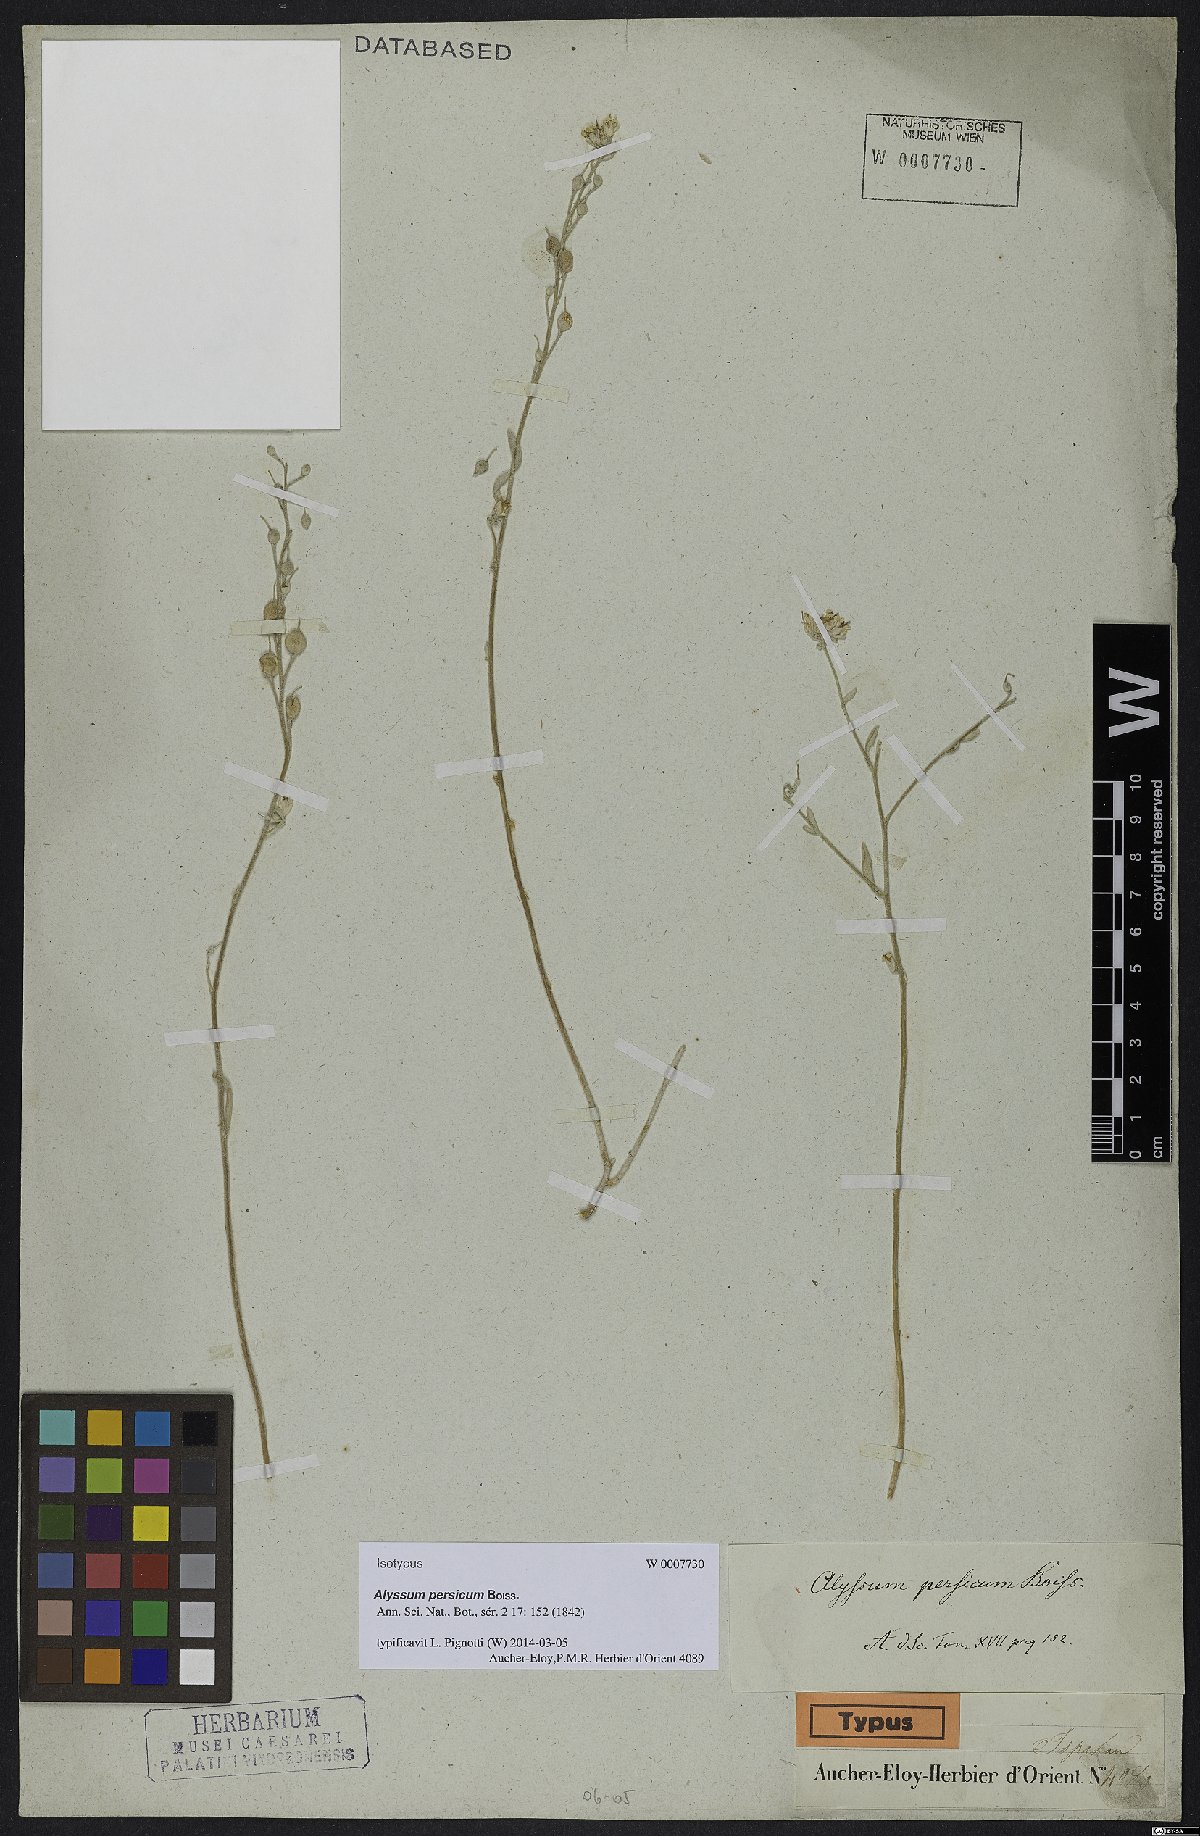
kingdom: Plantae
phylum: Tracheophyta
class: Magnoliopsida
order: Brassicales
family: Brassicaceae
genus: Alyssum
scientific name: Alyssum persicum
